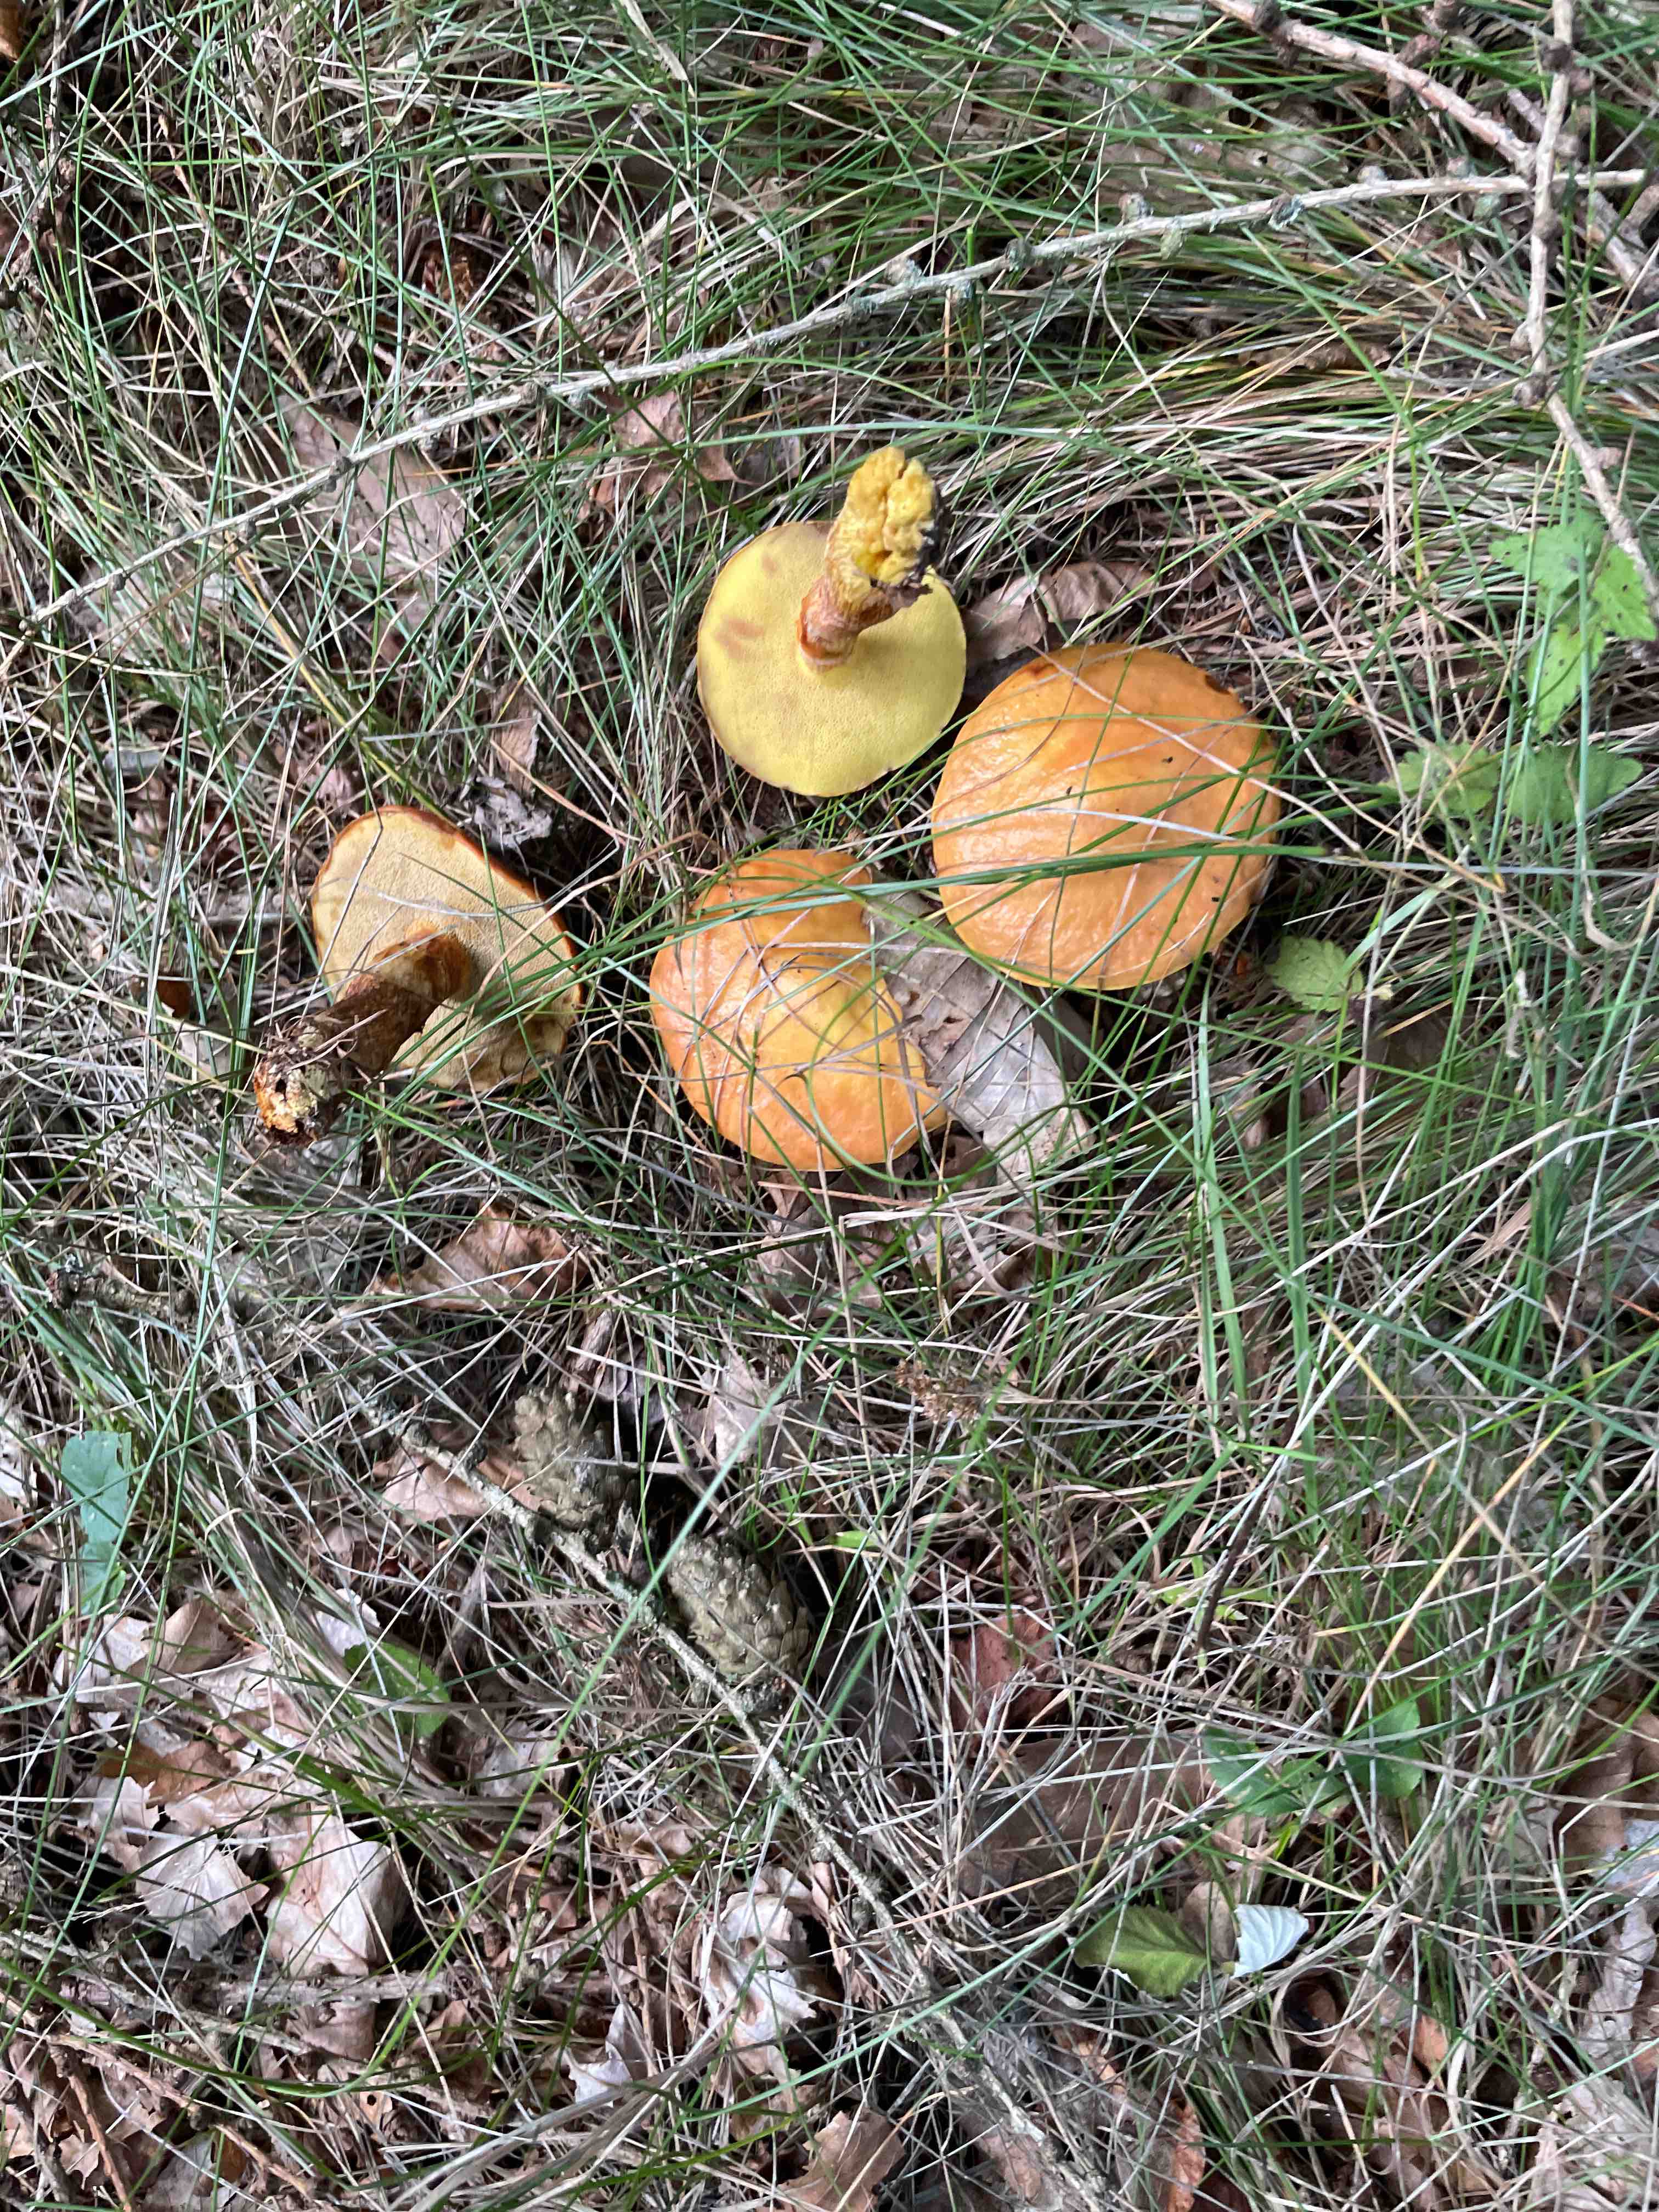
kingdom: Fungi
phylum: Basidiomycota
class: Agaricomycetes
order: Boletales
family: Suillaceae
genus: Suillus
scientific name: Suillus grevillei
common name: lærke-slimrørhat
